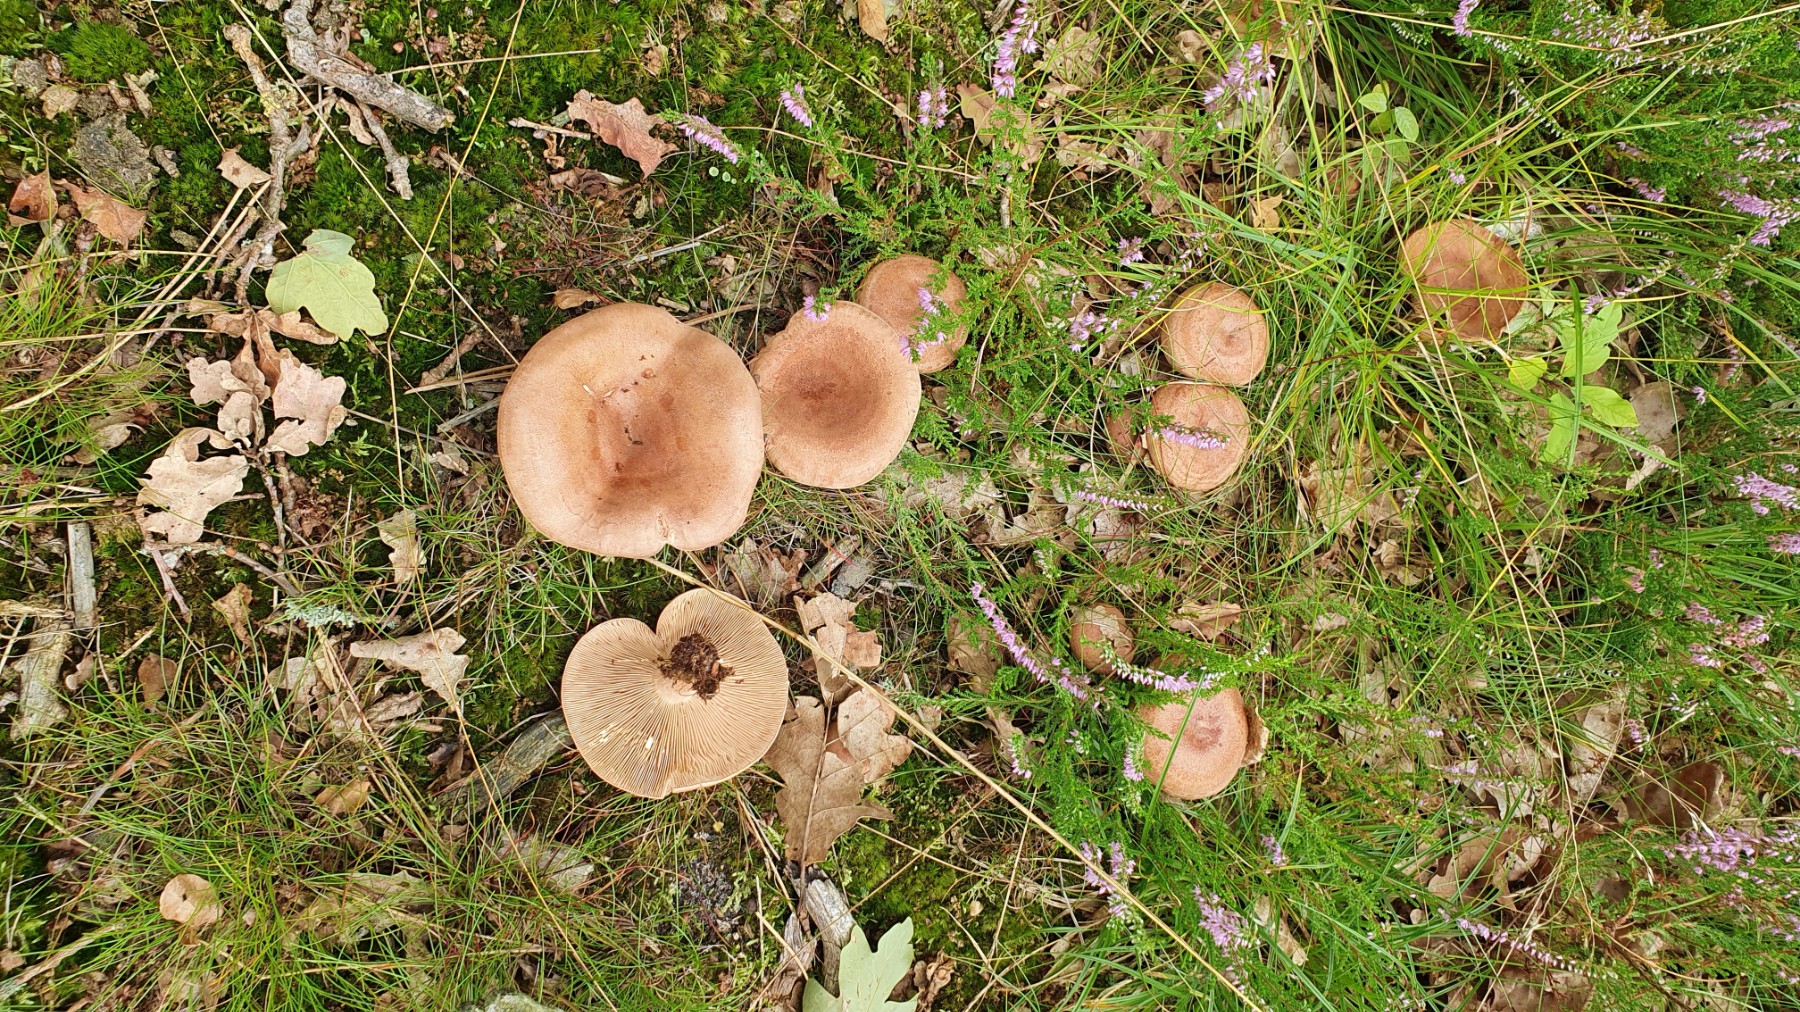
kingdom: Fungi
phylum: Basidiomycota
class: Agaricomycetes
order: Russulales
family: Russulaceae
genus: Lactarius
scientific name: Lactarius quietus
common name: ege-mælkehat
